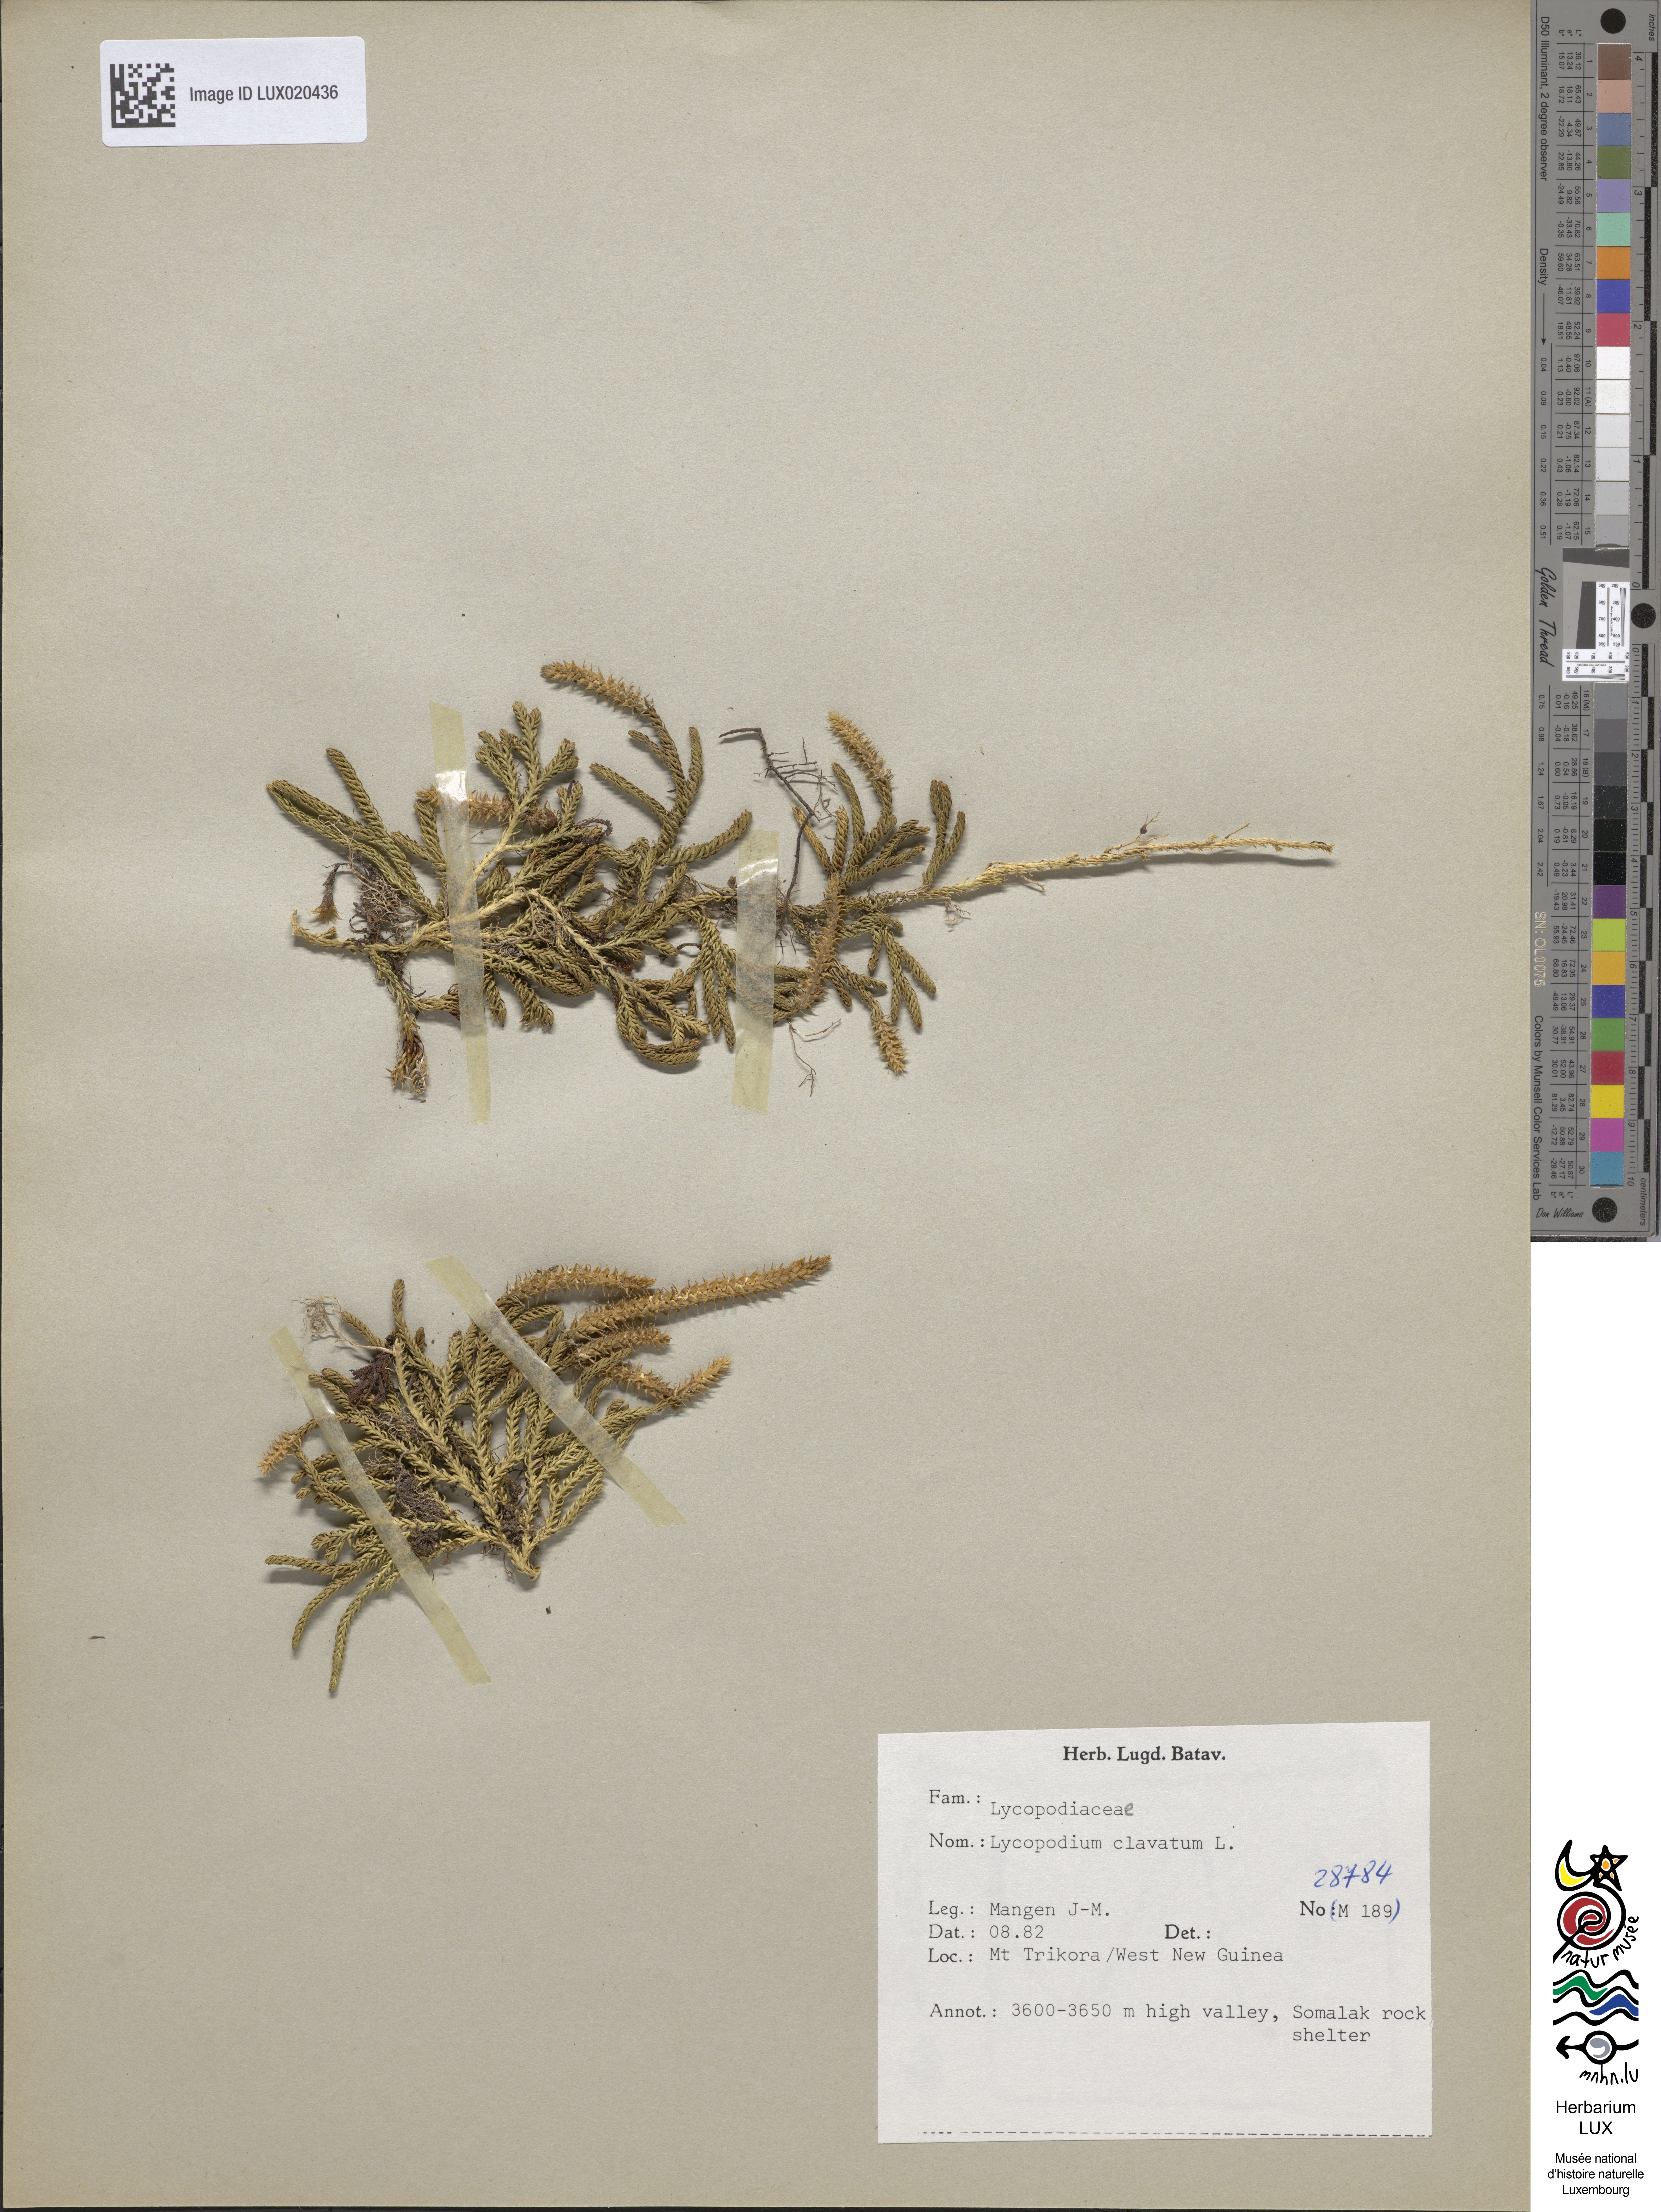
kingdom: Plantae
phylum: Tracheophyta
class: Lycopodiopsida
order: Lycopodiales
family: Lycopodiaceae
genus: Lycopodium
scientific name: Lycopodium clavatum
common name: Stag's-horn clubmoss
